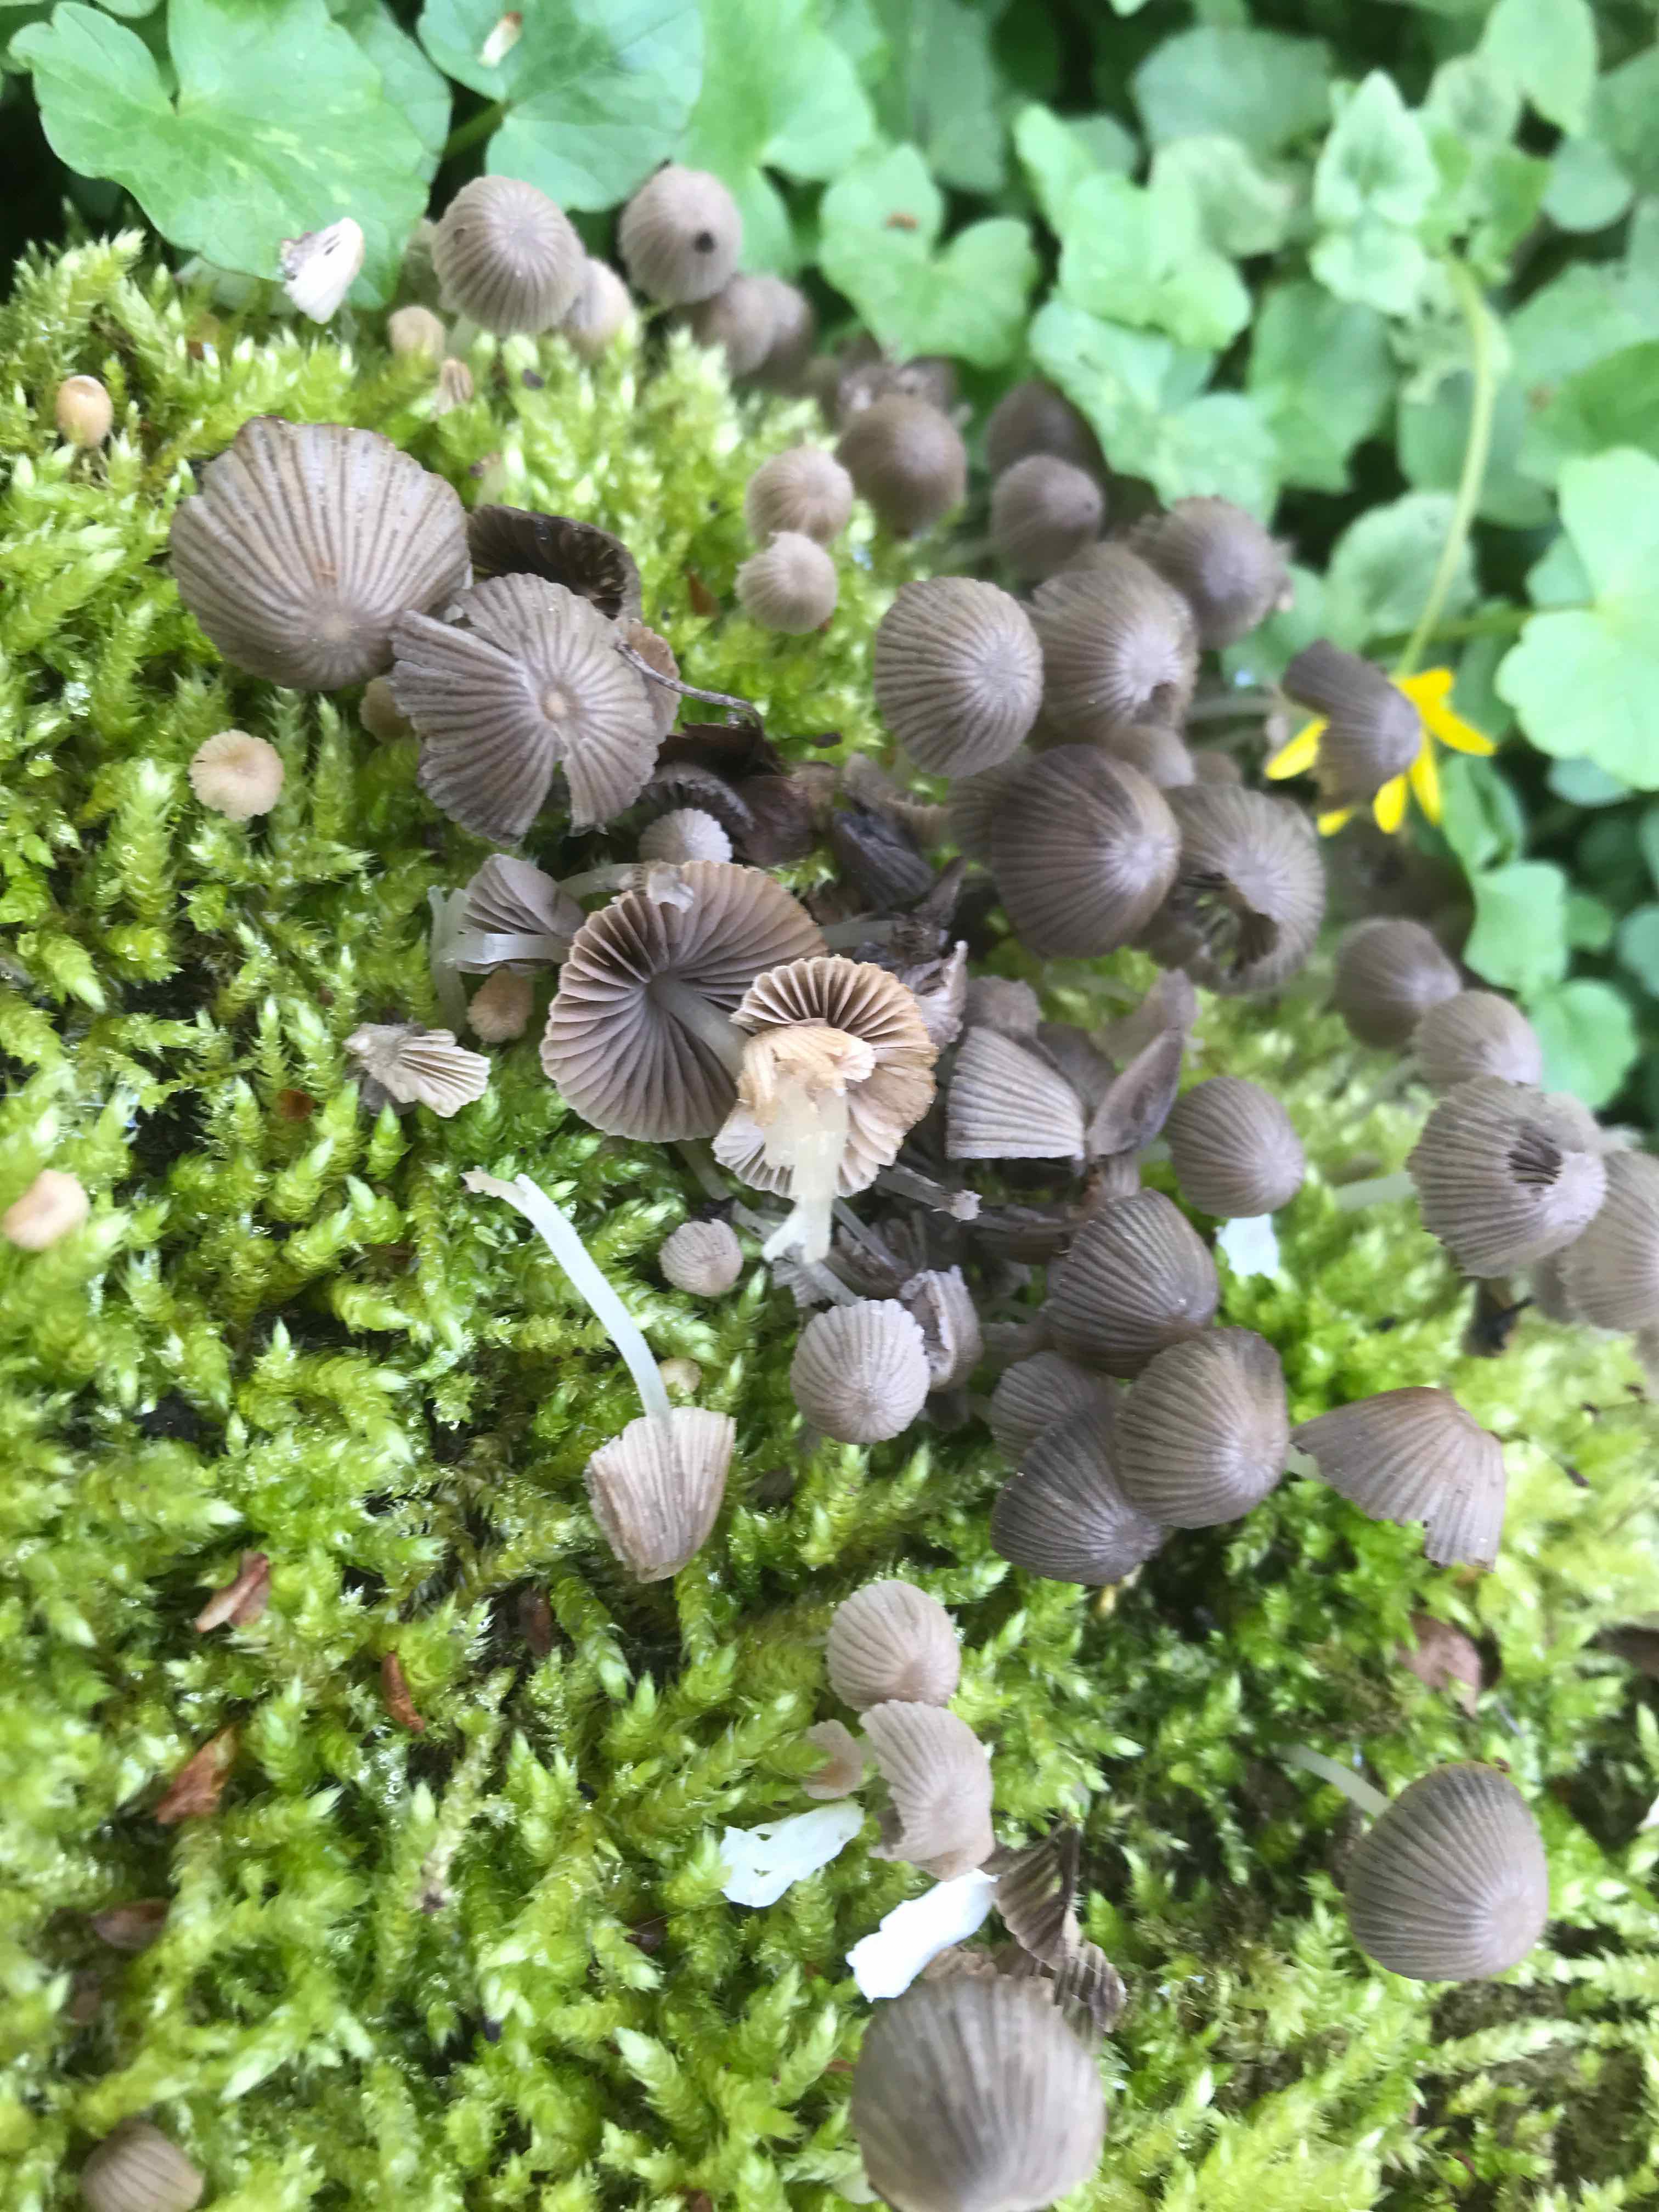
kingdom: Fungi
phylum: Basidiomycota
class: Agaricomycetes
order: Agaricales
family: Psathyrellaceae
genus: Coprinellus
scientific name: Coprinellus disseminatus
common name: bredsået blækhat
